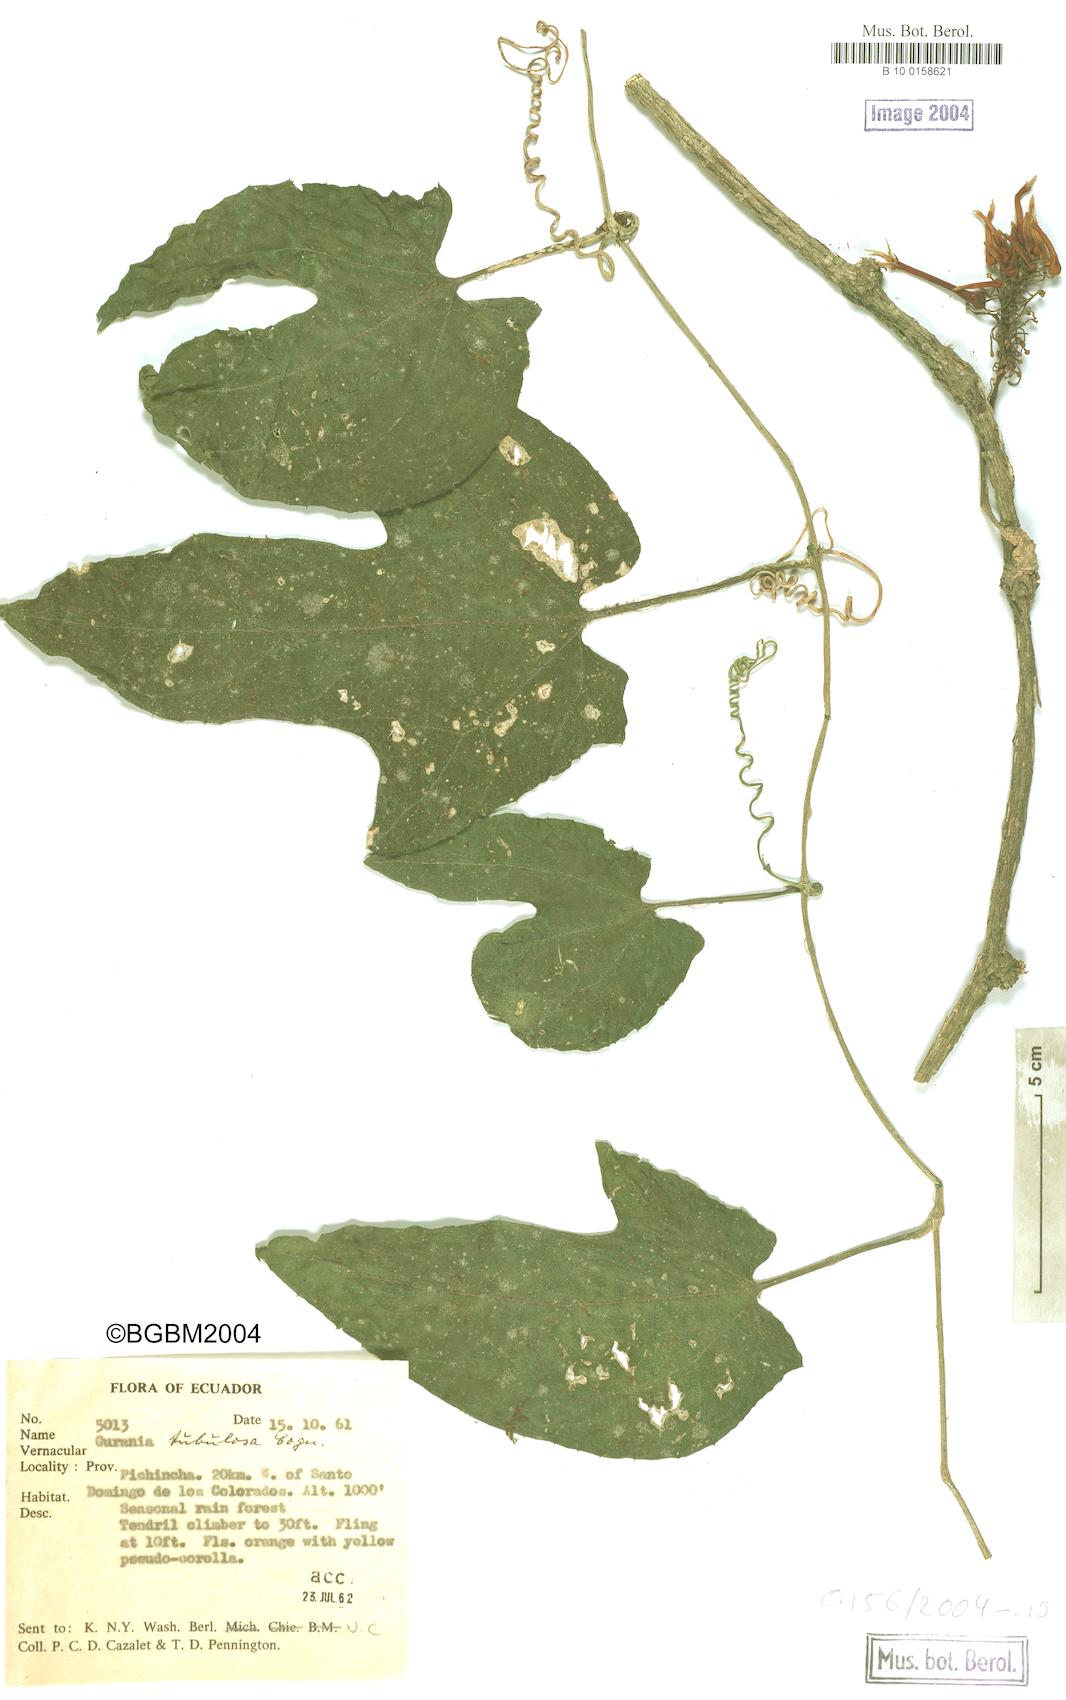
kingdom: Plantae
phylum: Tracheophyta
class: Magnoliopsida
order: Cucurbitales
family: Cucurbitaceae
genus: Gurania
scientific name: Gurania tubulosa
